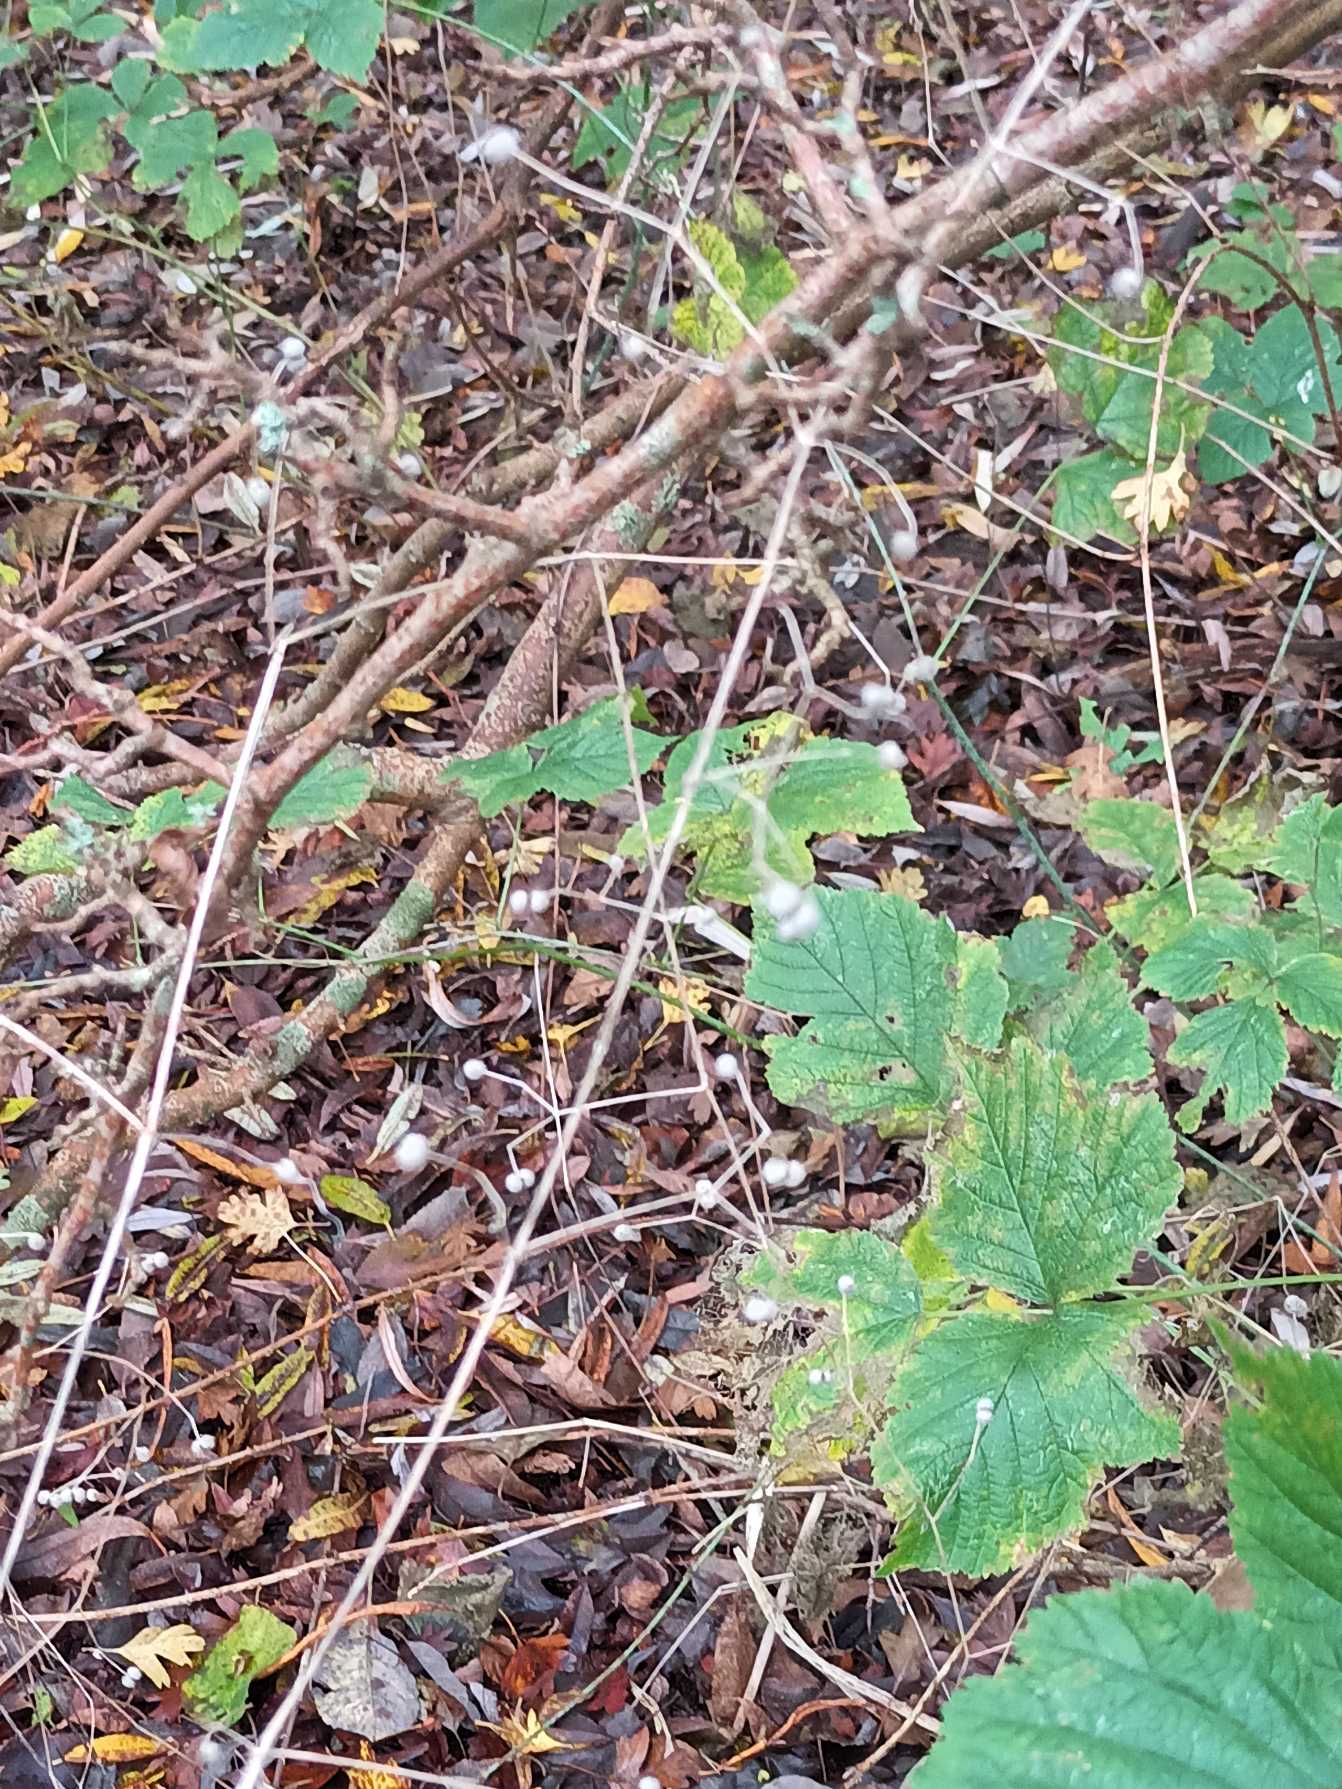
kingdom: Plantae
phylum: Tracheophyta
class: Magnoliopsida
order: Gentianales
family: Rubiaceae
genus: Galium
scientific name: Galium aparine
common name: Burre-snerre
